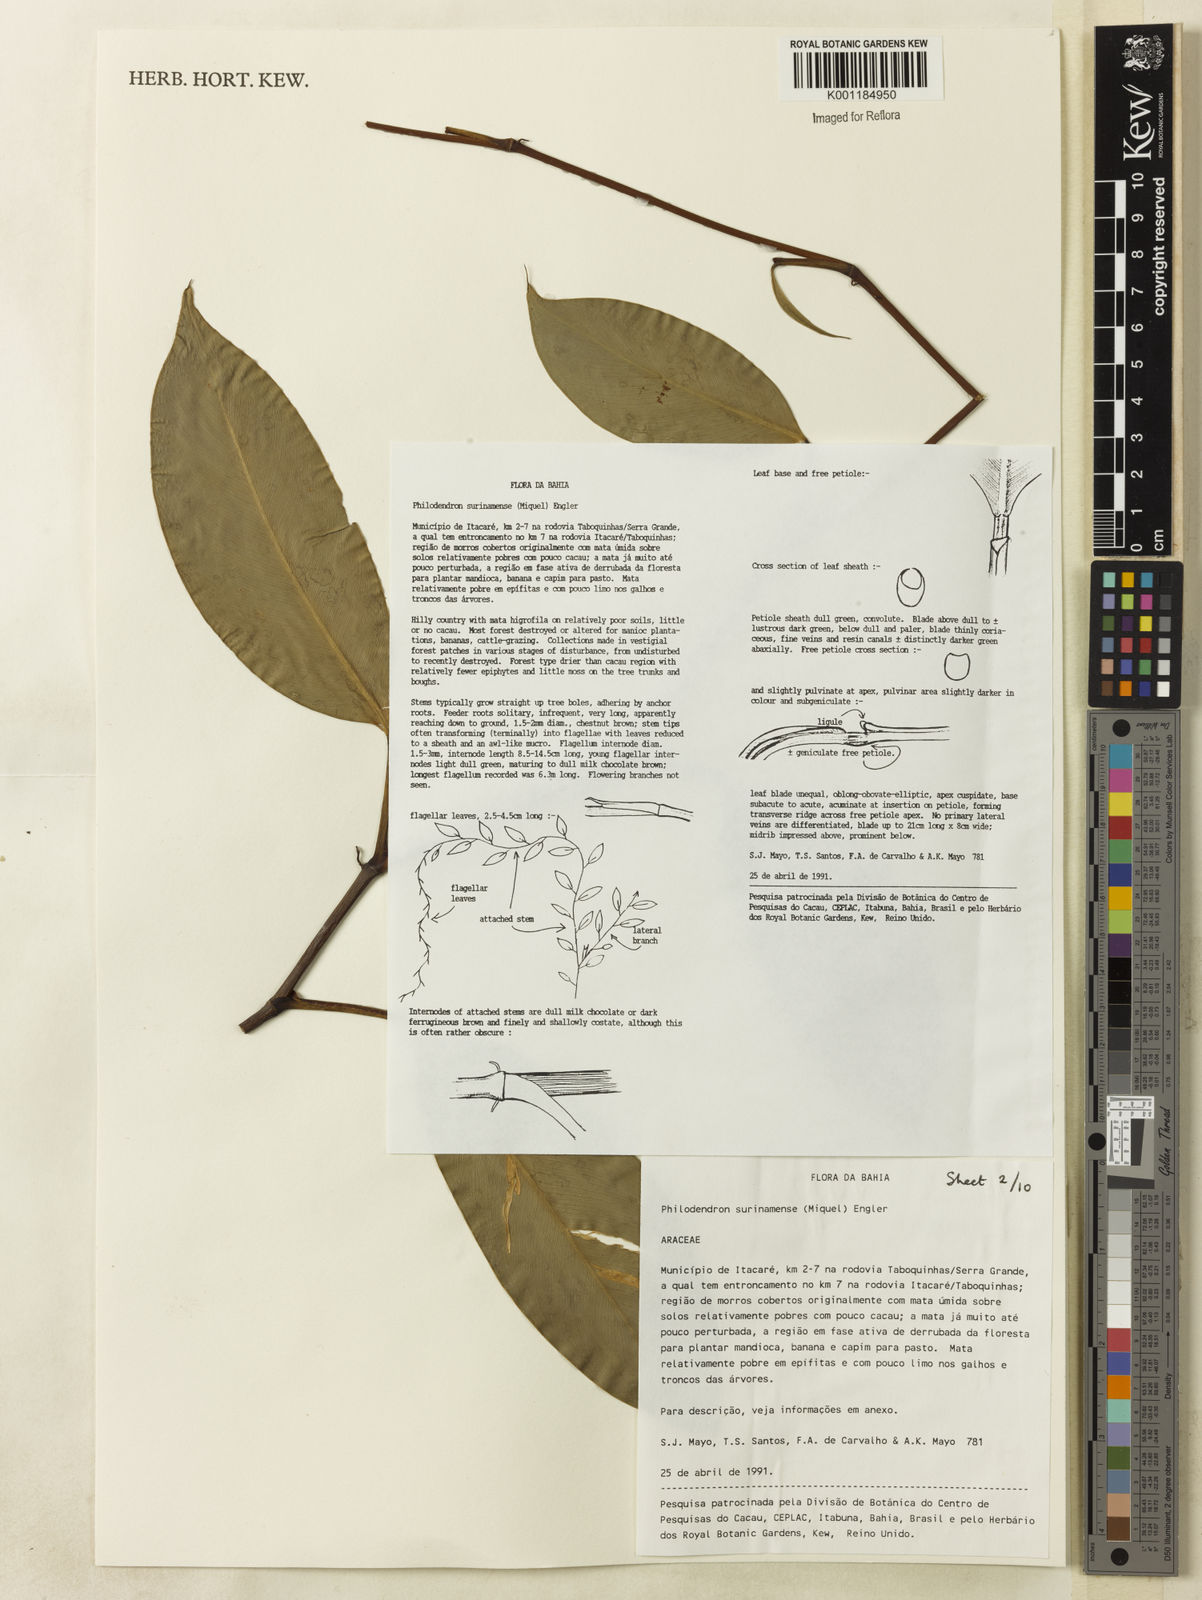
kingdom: Plantae
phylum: Tracheophyta
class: Liliopsida
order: Alismatales
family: Araceae
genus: Philodendron
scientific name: Philodendron surinamense
